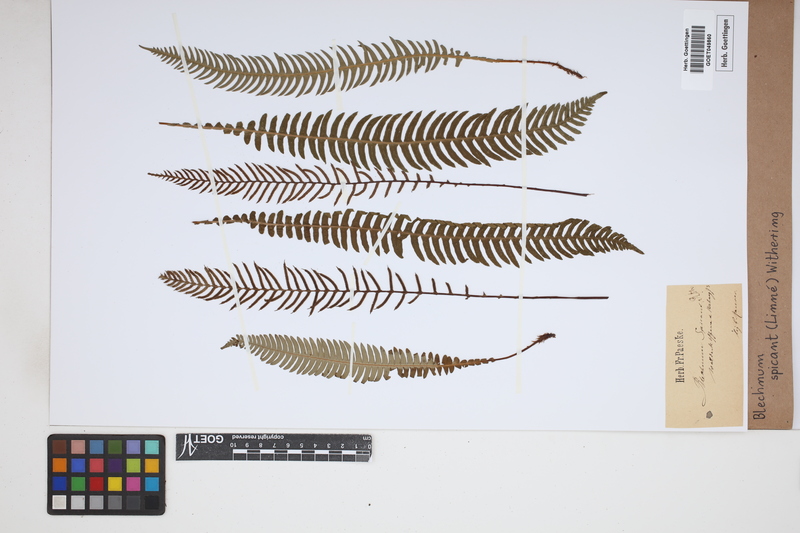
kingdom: Plantae
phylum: Tracheophyta
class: Polypodiopsida
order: Polypodiales
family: Blechnaceae
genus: Struthiopteris
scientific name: Struthiopteris spicant
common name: Deer fern
